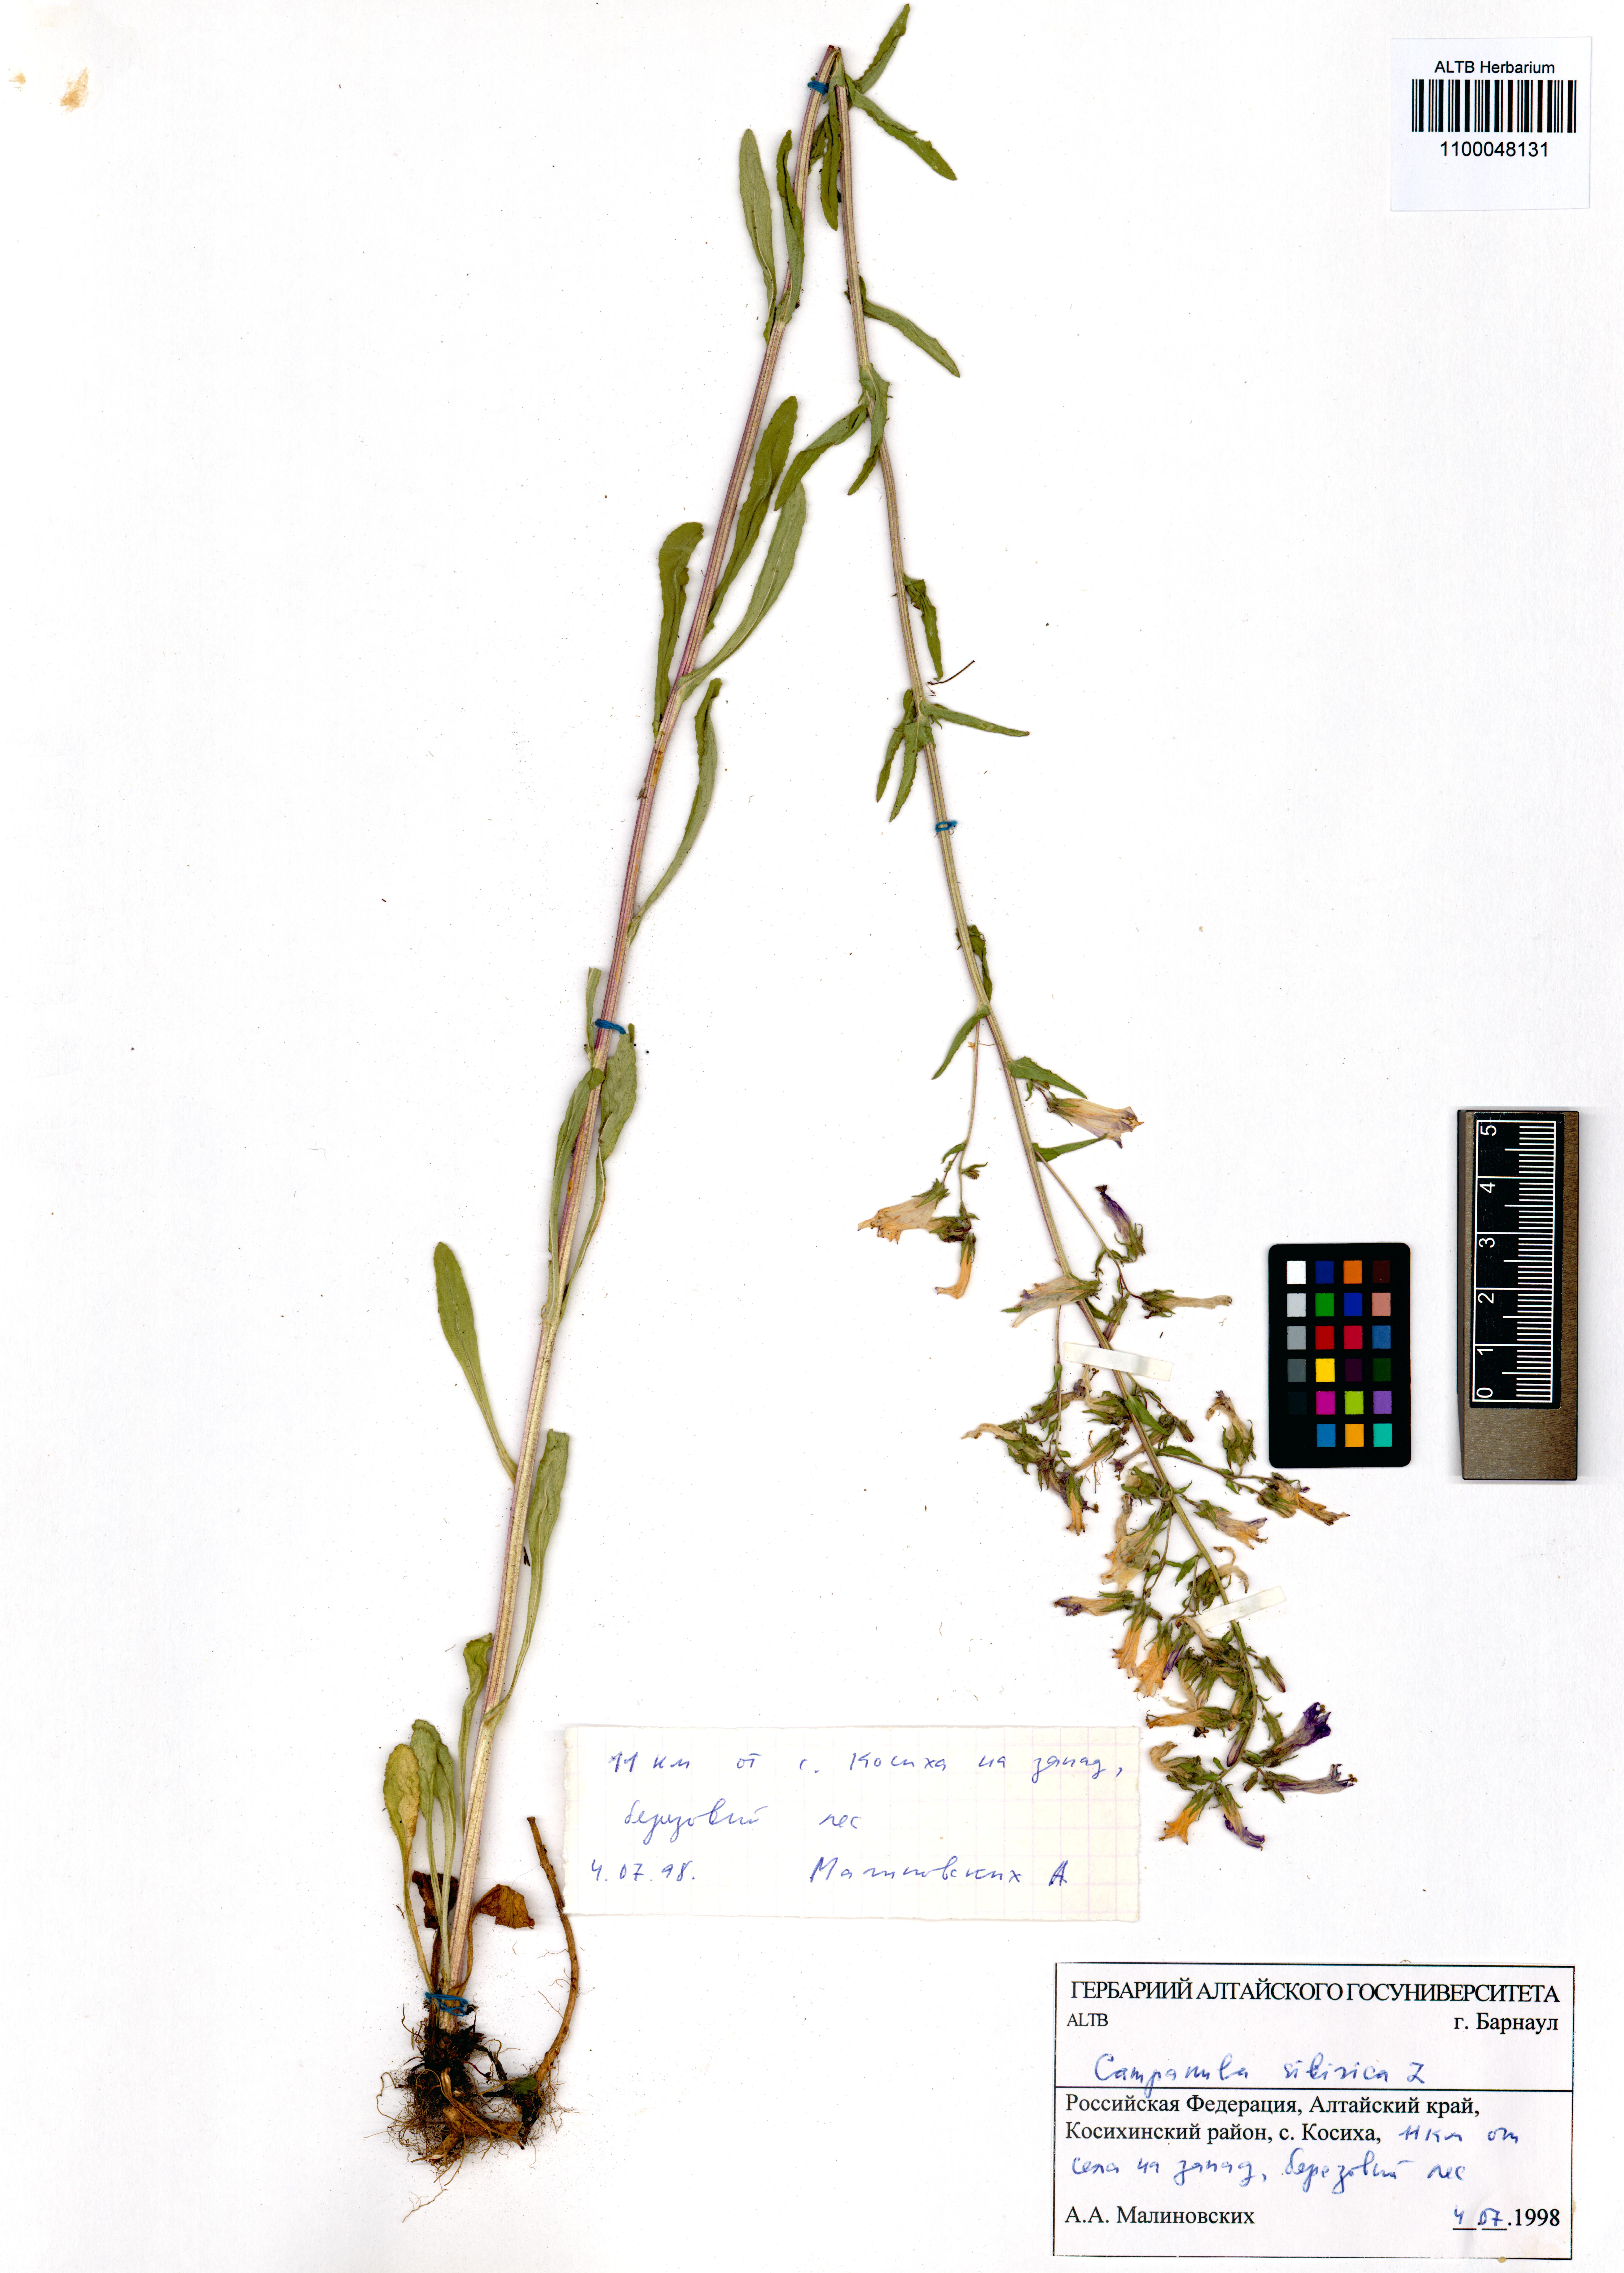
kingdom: Plantae
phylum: Tracheophyta
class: Magnoliopsida
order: Asterales
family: Campanulaceae
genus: Campanula
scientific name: Campanula sibirica
